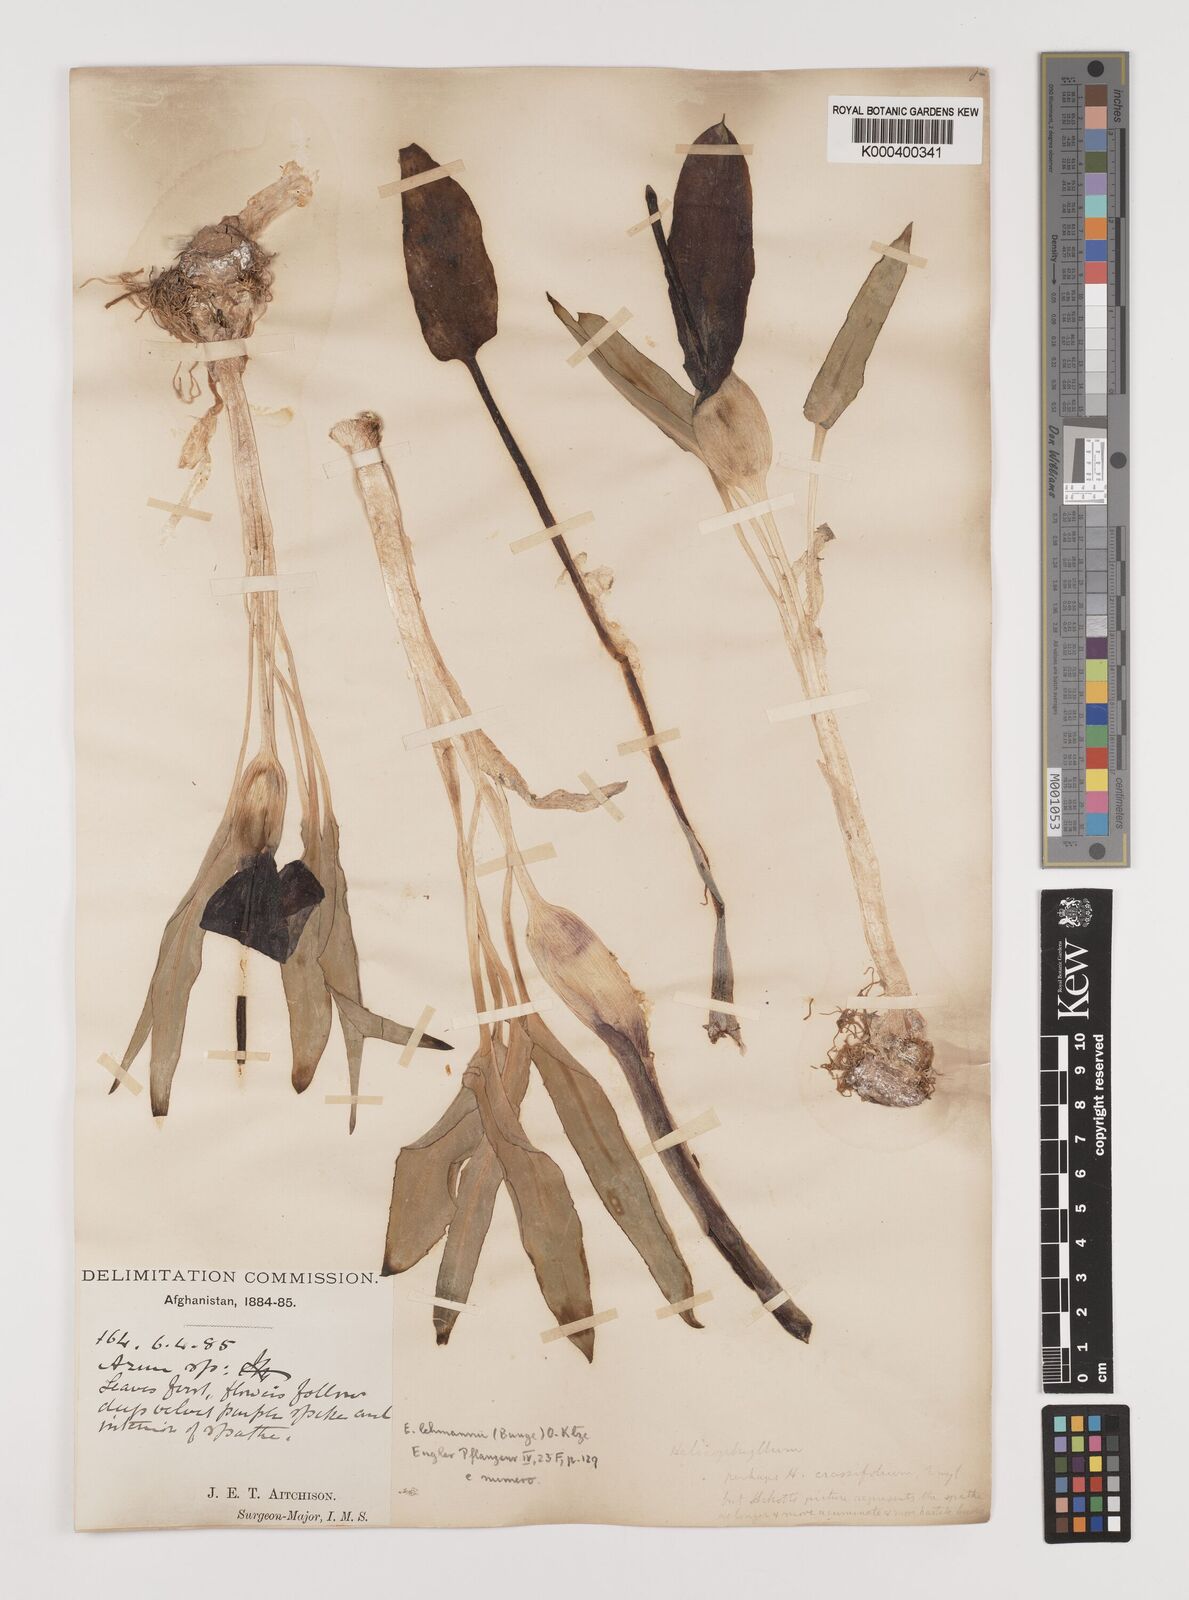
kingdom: Plantae
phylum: Tracheophyta
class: Liliopsida
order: Alismatales
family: Araceae
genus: Eminium
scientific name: Eminium lehmannii
